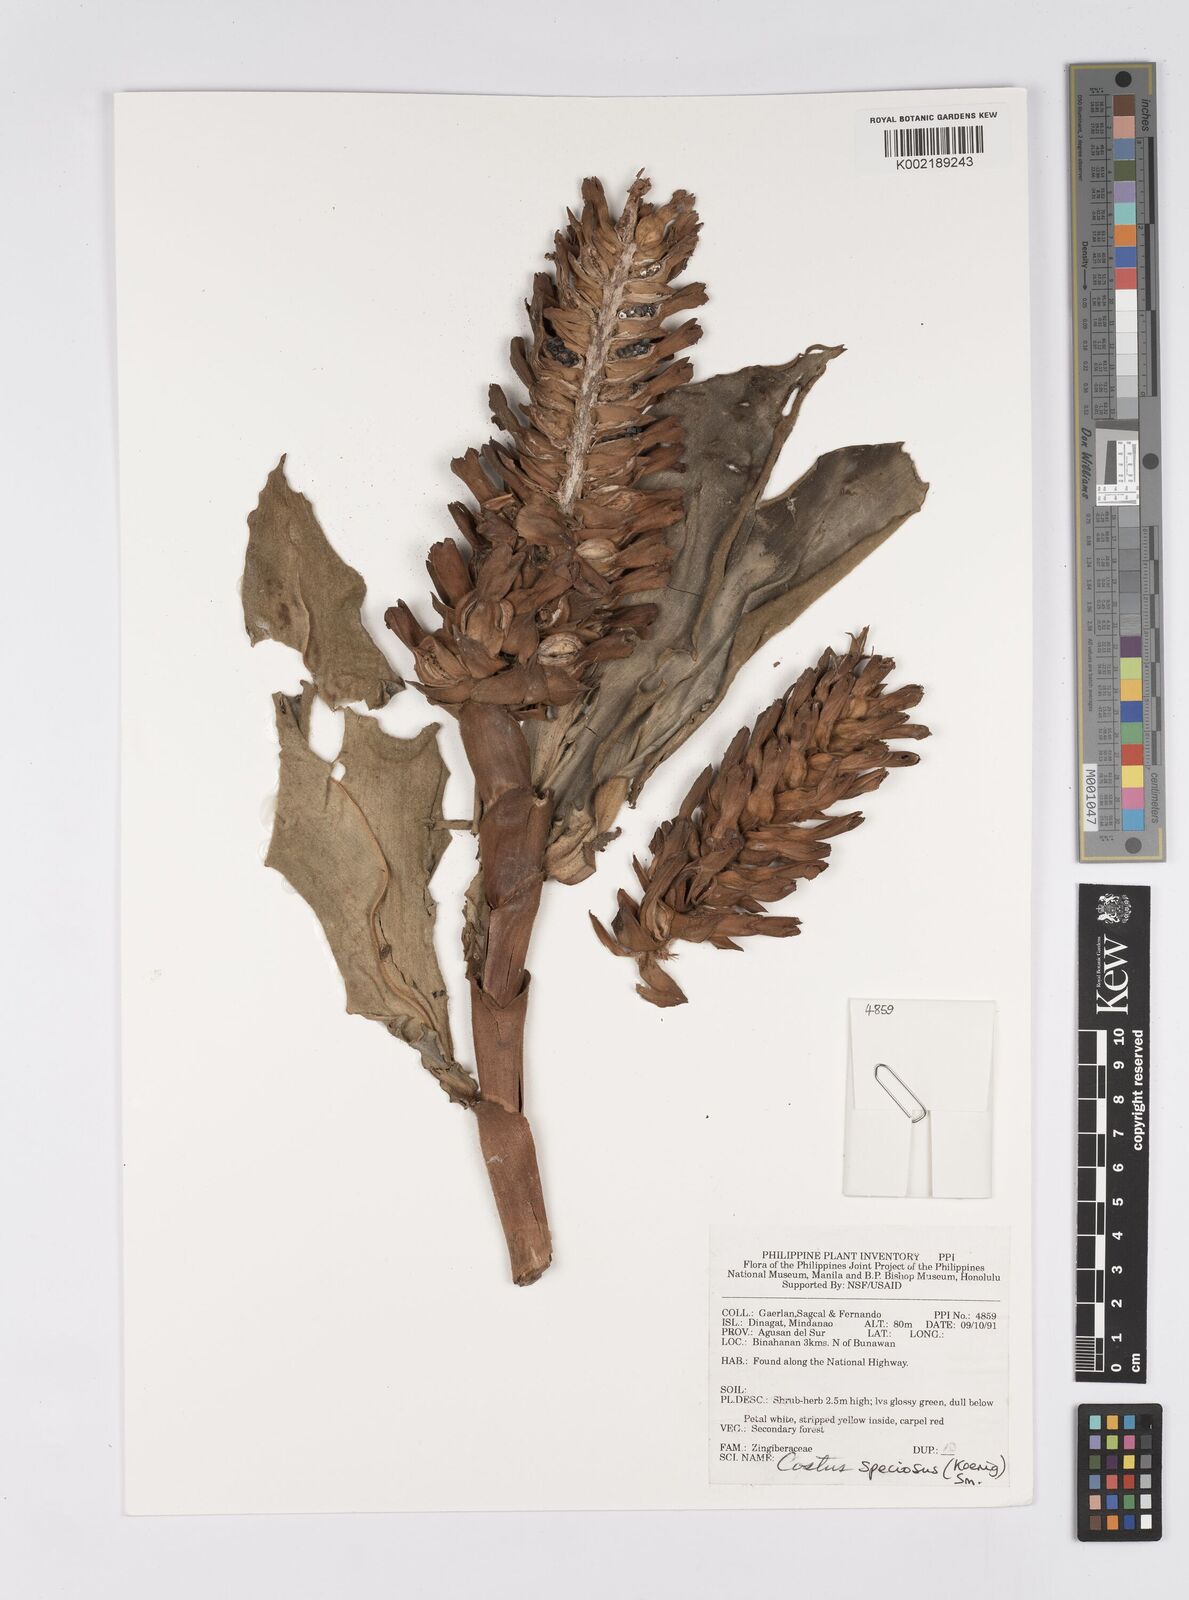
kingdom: Plantae
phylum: Tracheophyta
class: Liliopsida
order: Zingiberales
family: Costaceae
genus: Hellenia
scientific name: Hellenia speciosa
